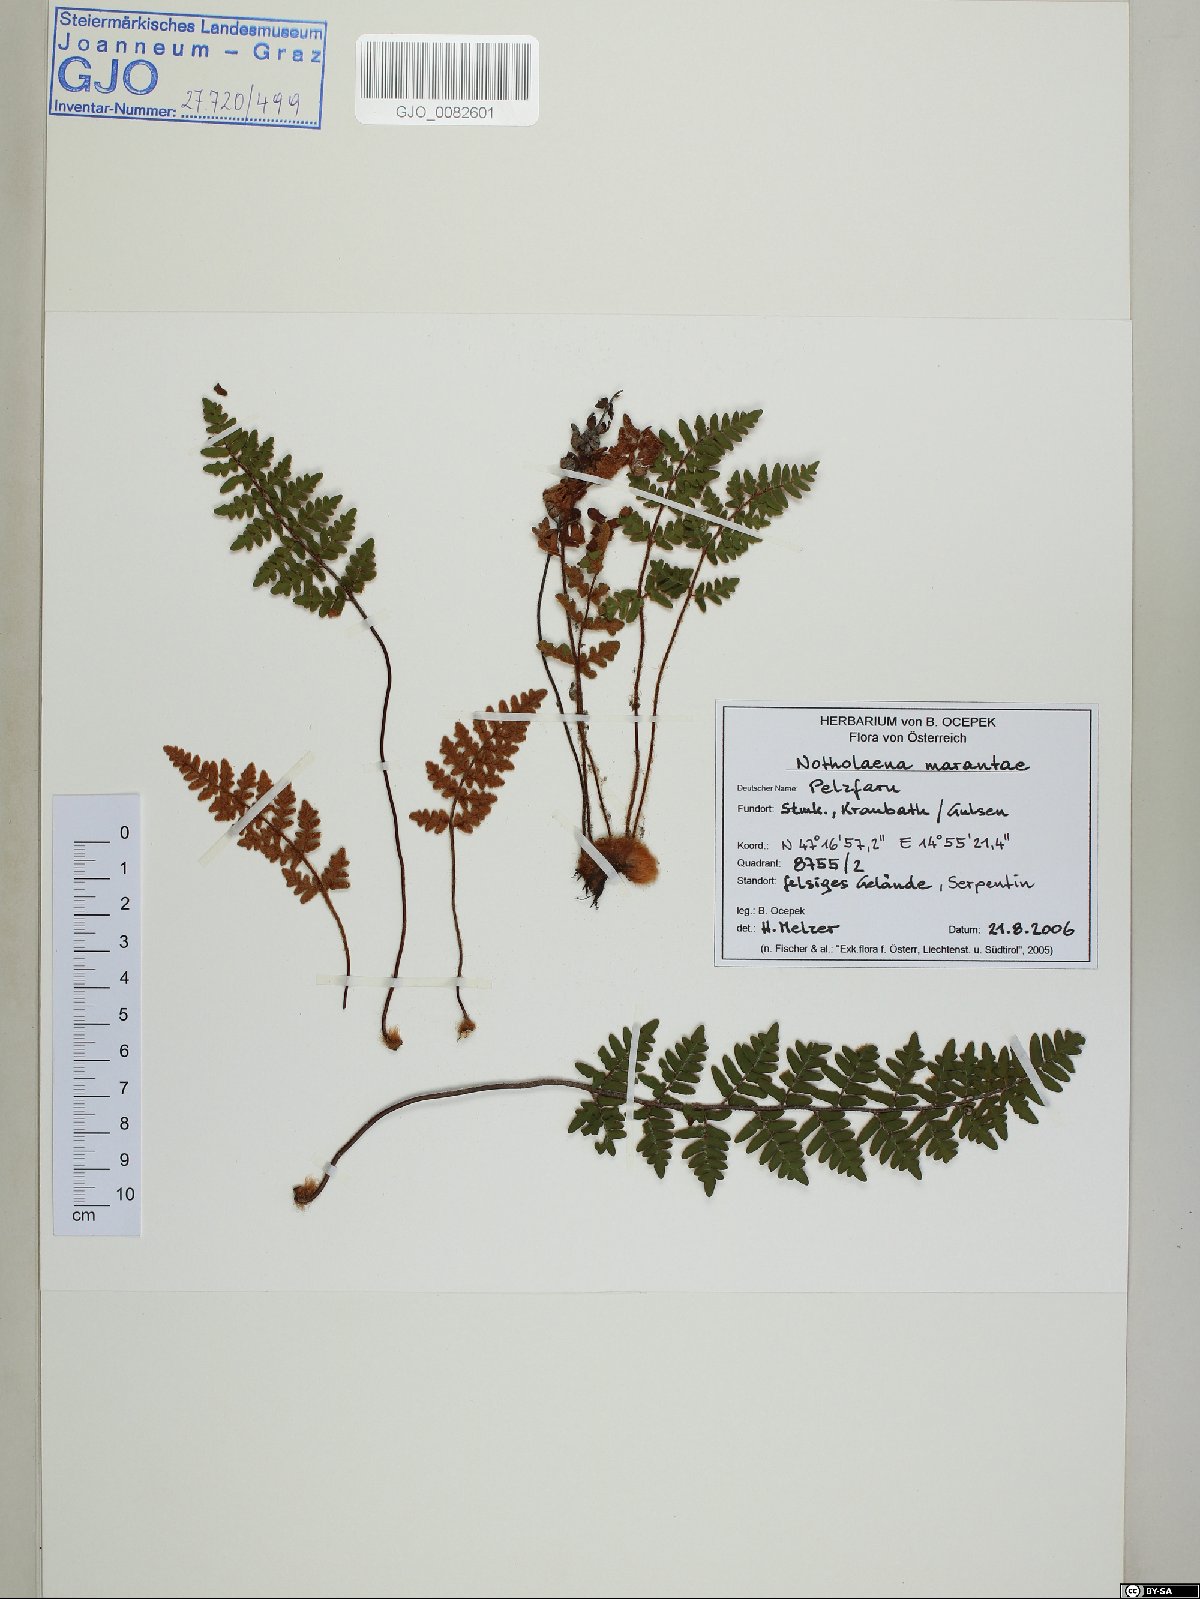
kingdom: Plantae
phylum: Tracheophyta
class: Polypodiopsida
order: Polypodiales
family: Pteridaceae
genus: Paragymnopteris
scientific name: Paragymnopteris marantae
